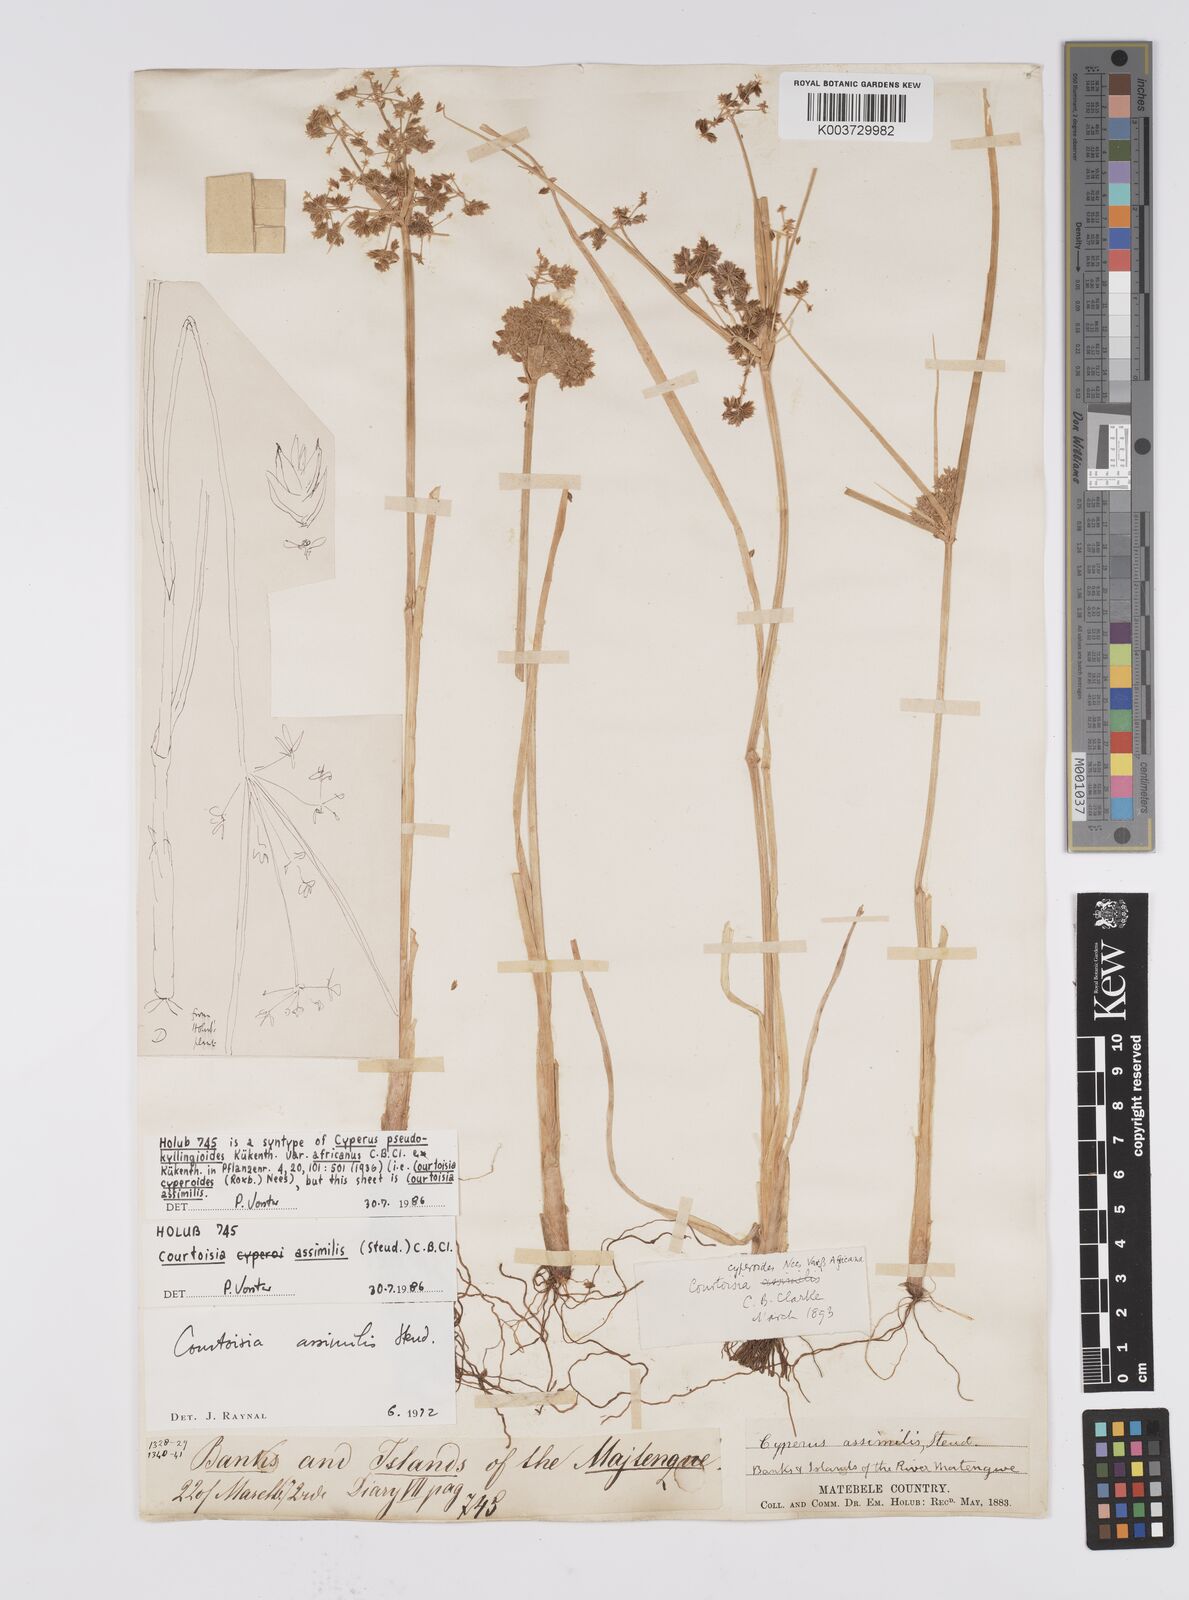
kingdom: Plantae
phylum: Tracheophyta
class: Liliopsida
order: Poales
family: Cyperaceae
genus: Cyperus
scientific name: Cyperus assimilis
